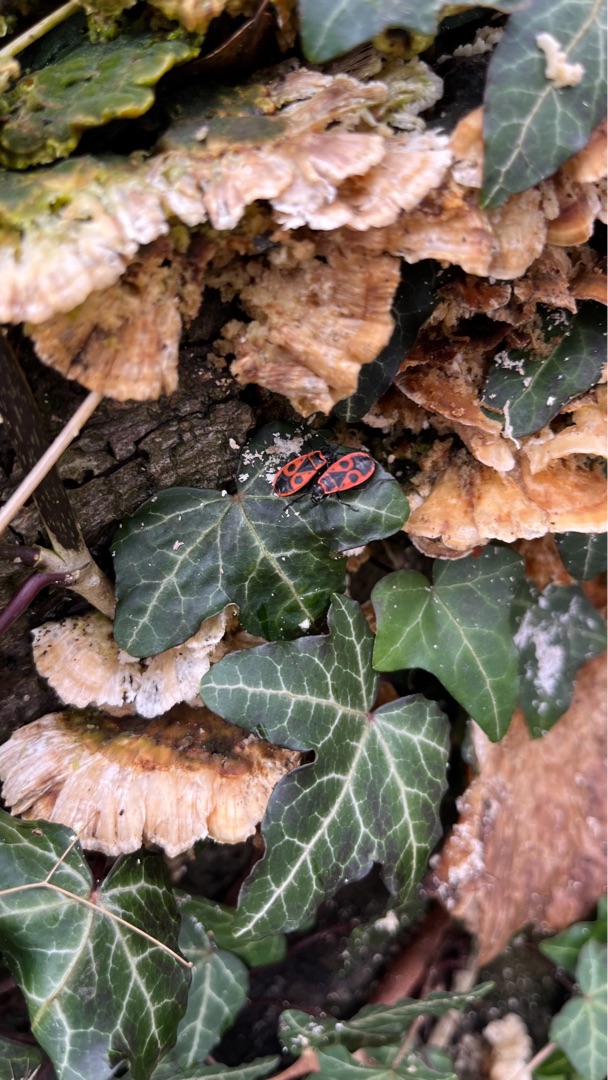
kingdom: Animalia
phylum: Arthropoda
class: Insecta
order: Hemiptera
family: Pyrrhocoridae
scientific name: Pyrrhocoridae
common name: Ildtæger
